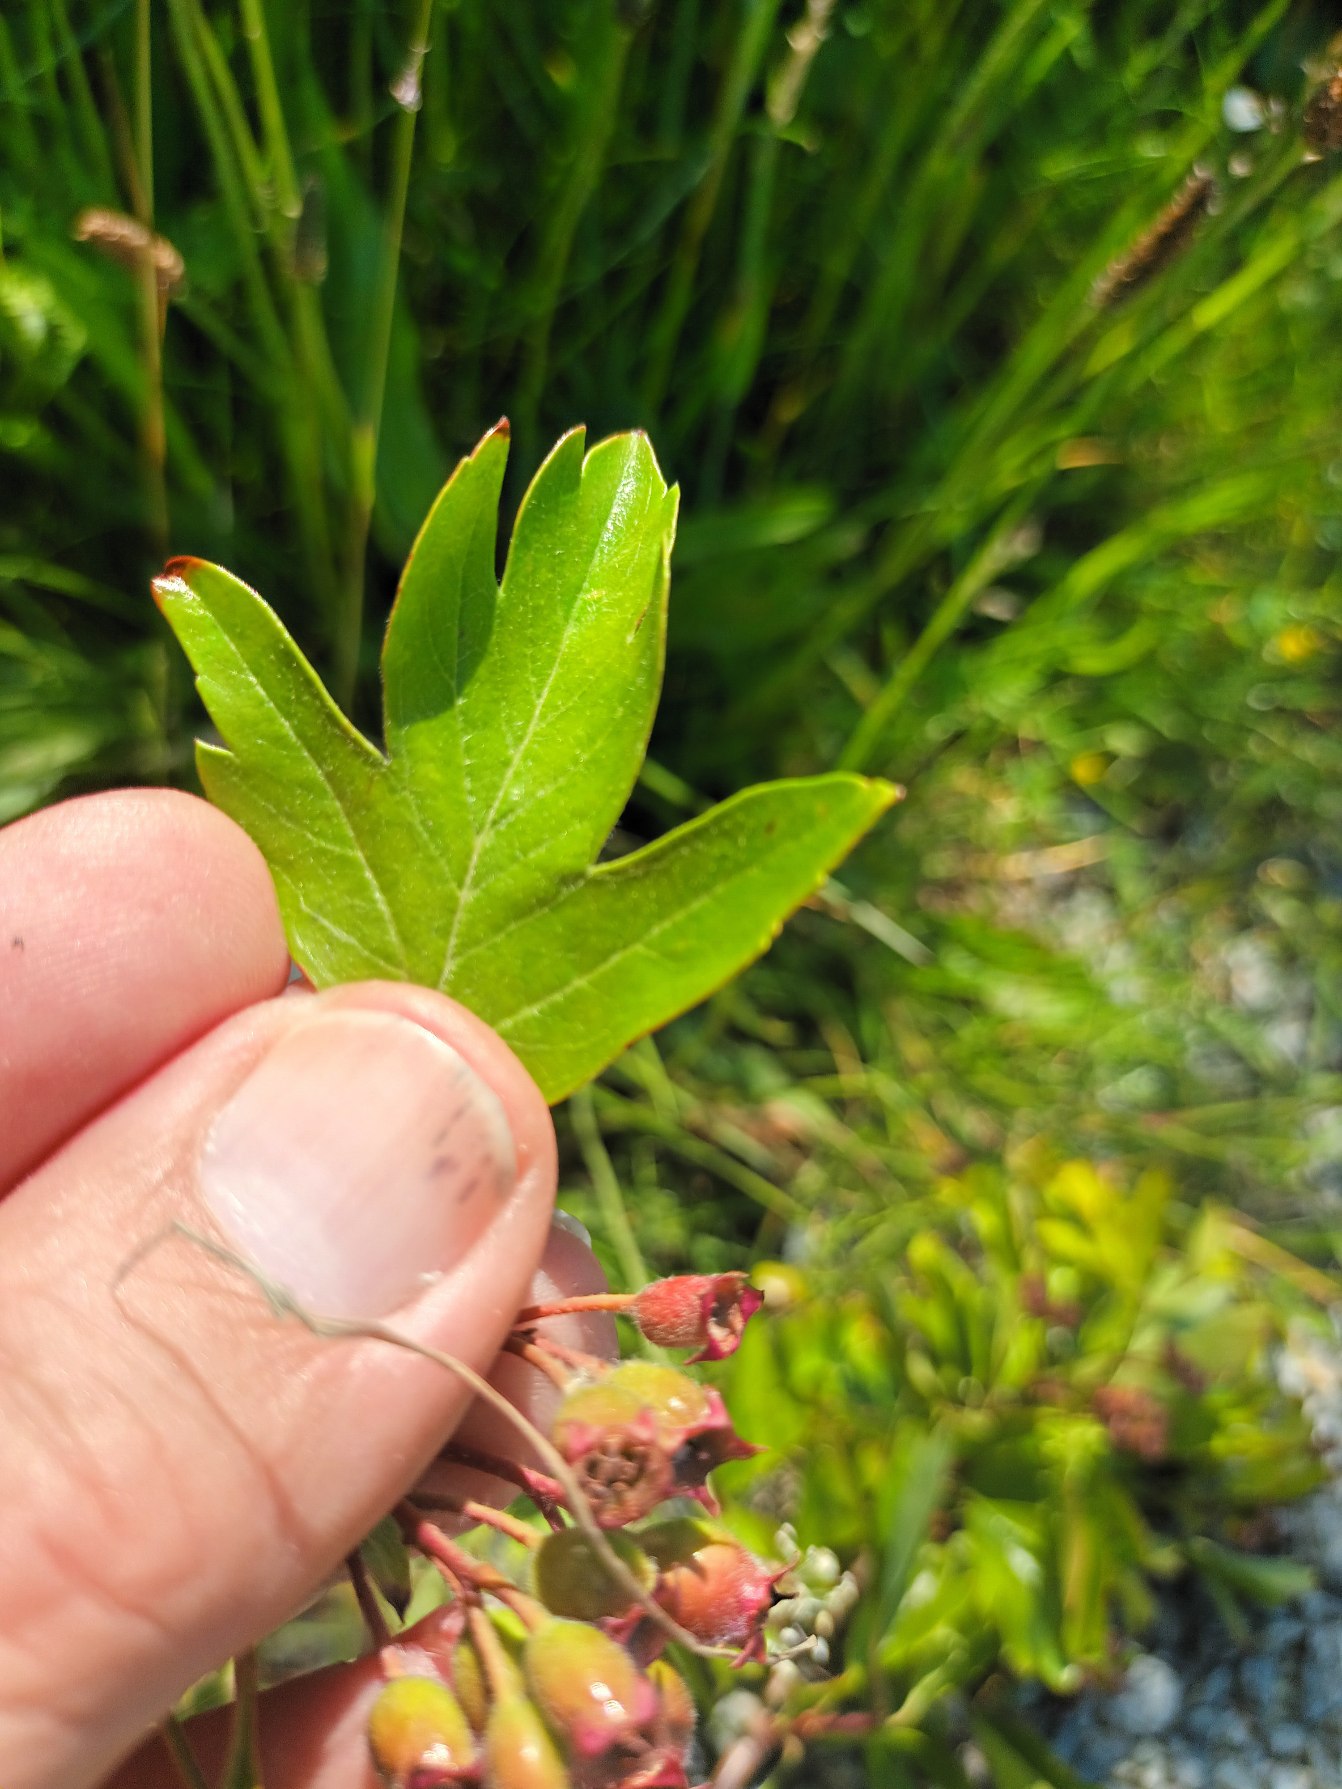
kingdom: Plantae
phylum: Tracheophyta
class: Magnoliopsida
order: Rosales
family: Rosaceae
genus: Crataegus
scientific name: Crataegus macrocarpa
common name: Almindelig hvidtjørn × koral-hvidtjørn
